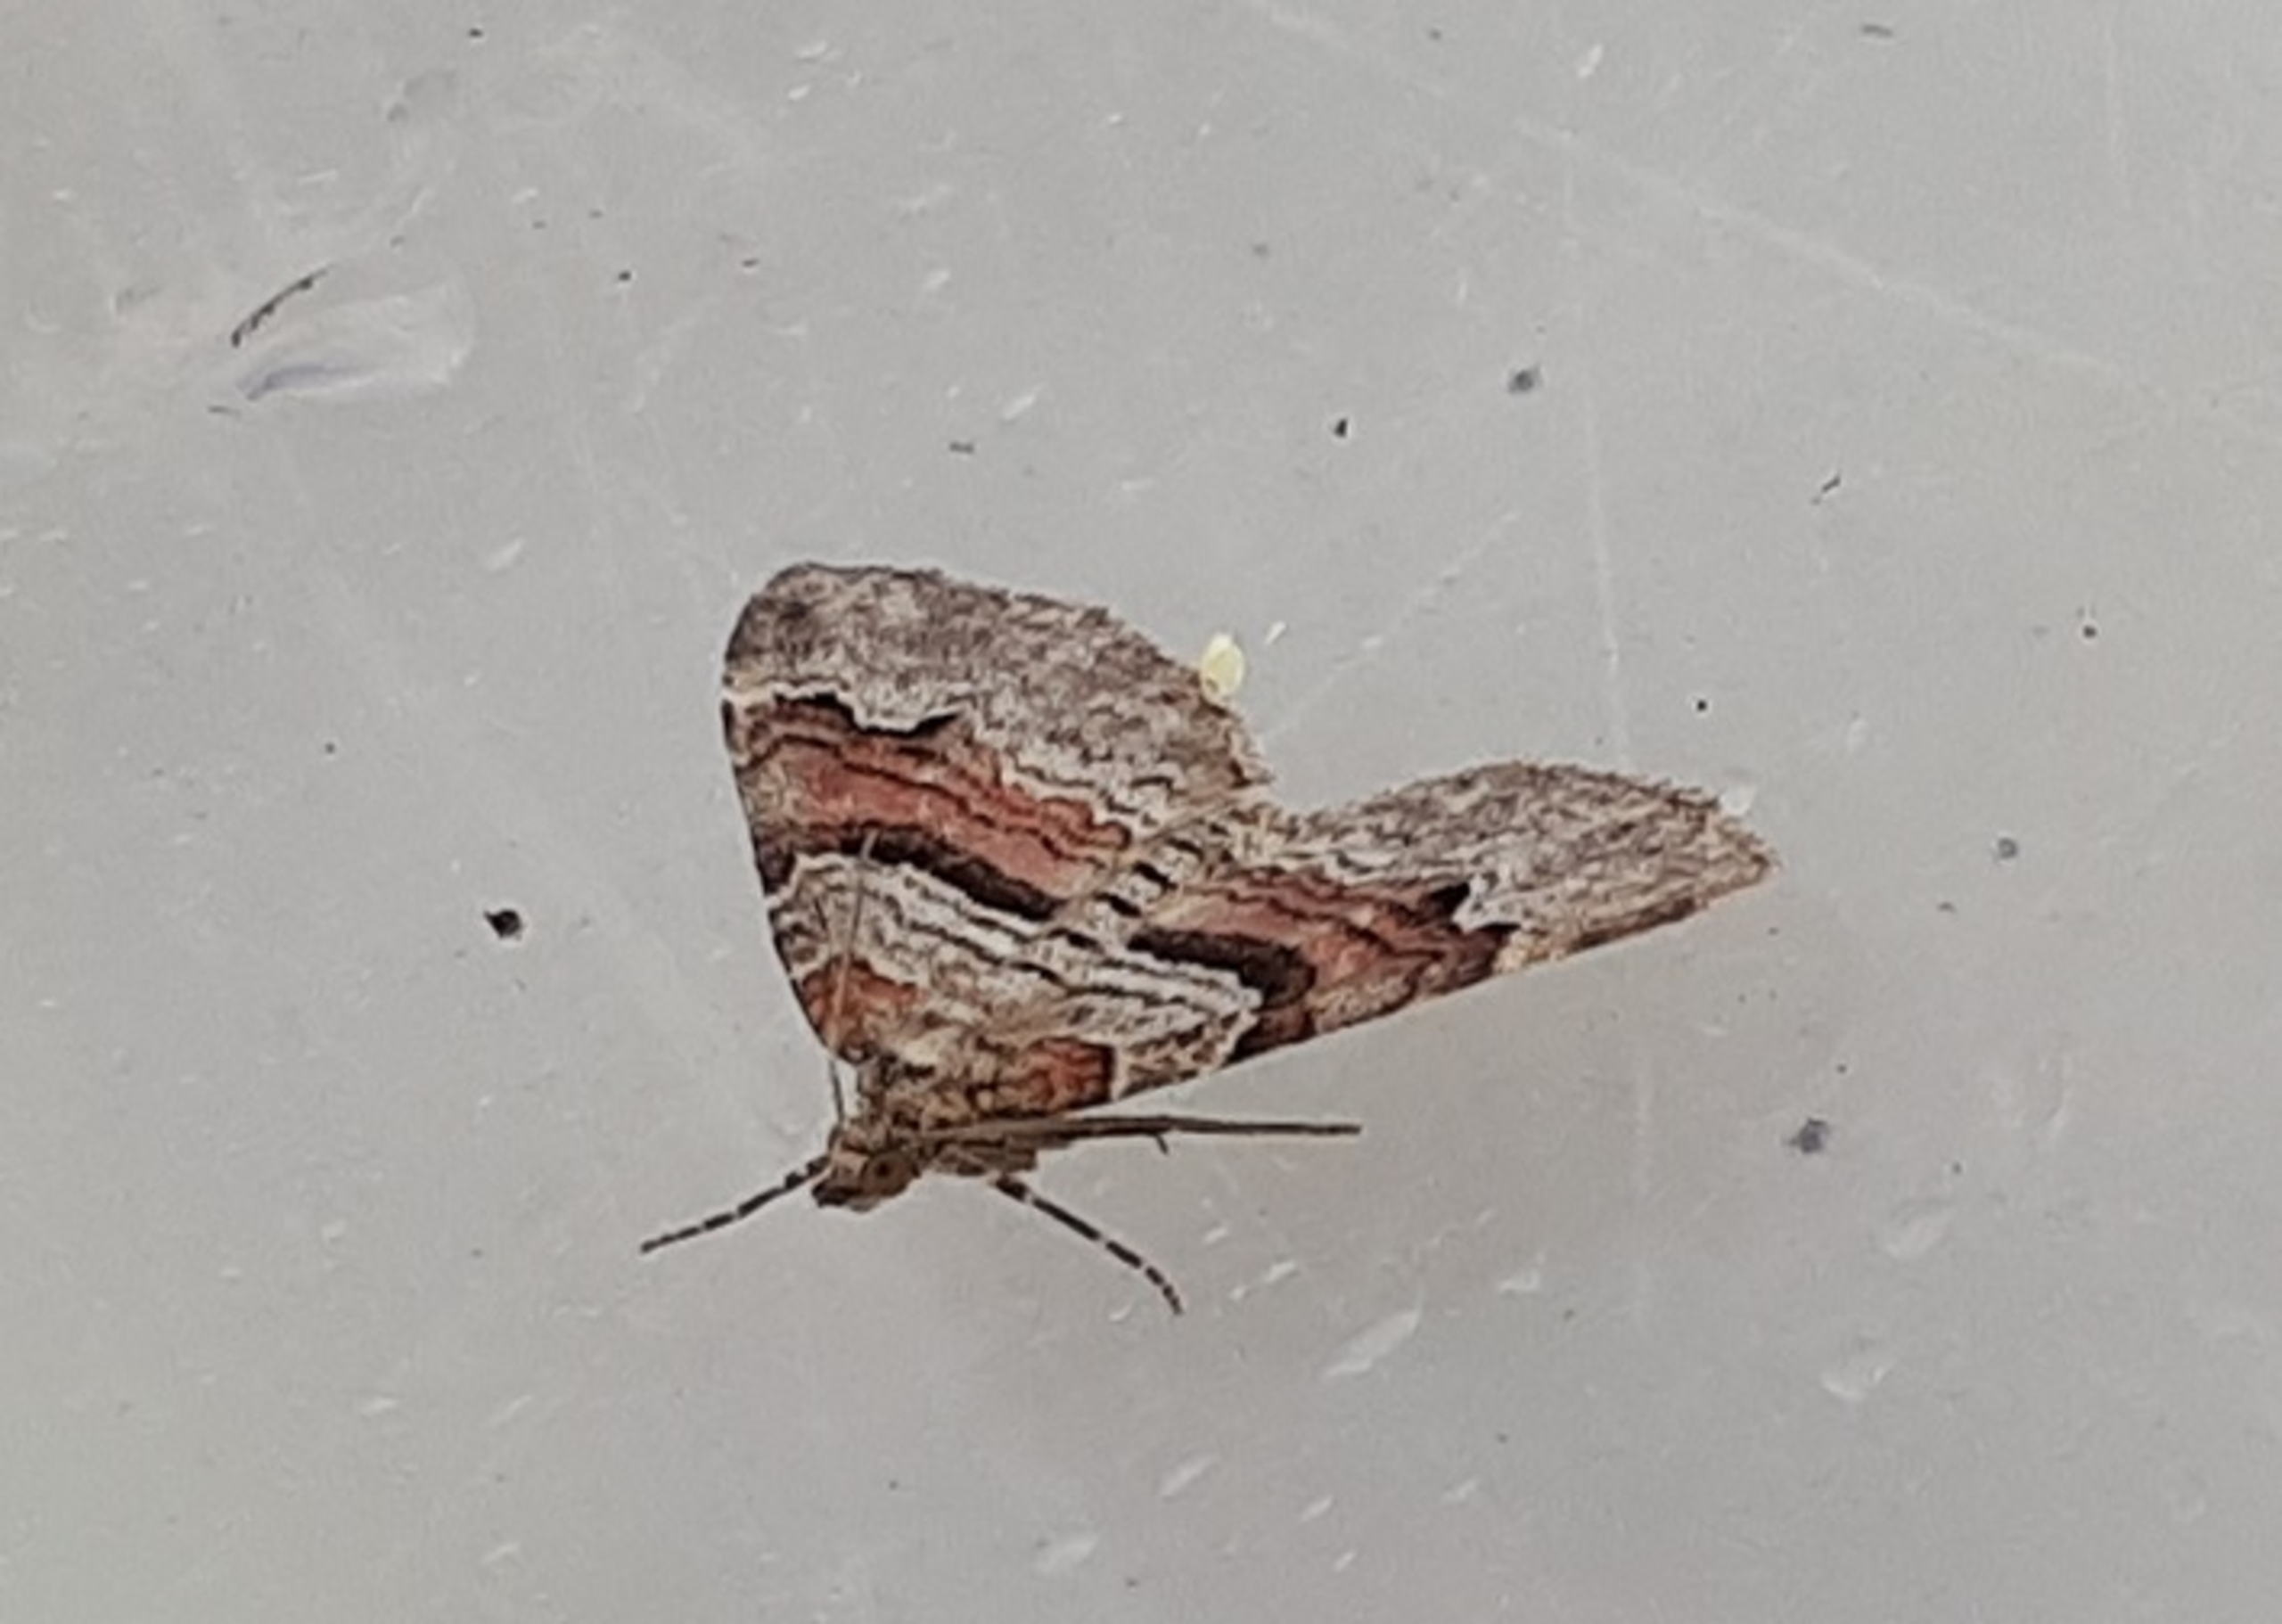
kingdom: Animalia
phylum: Arthropoda
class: Insecta
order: Lepidoptera
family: Geometridae
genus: Xanthorhoe
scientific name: Xanthorhoe designata
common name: Sortkantet bladmåler
